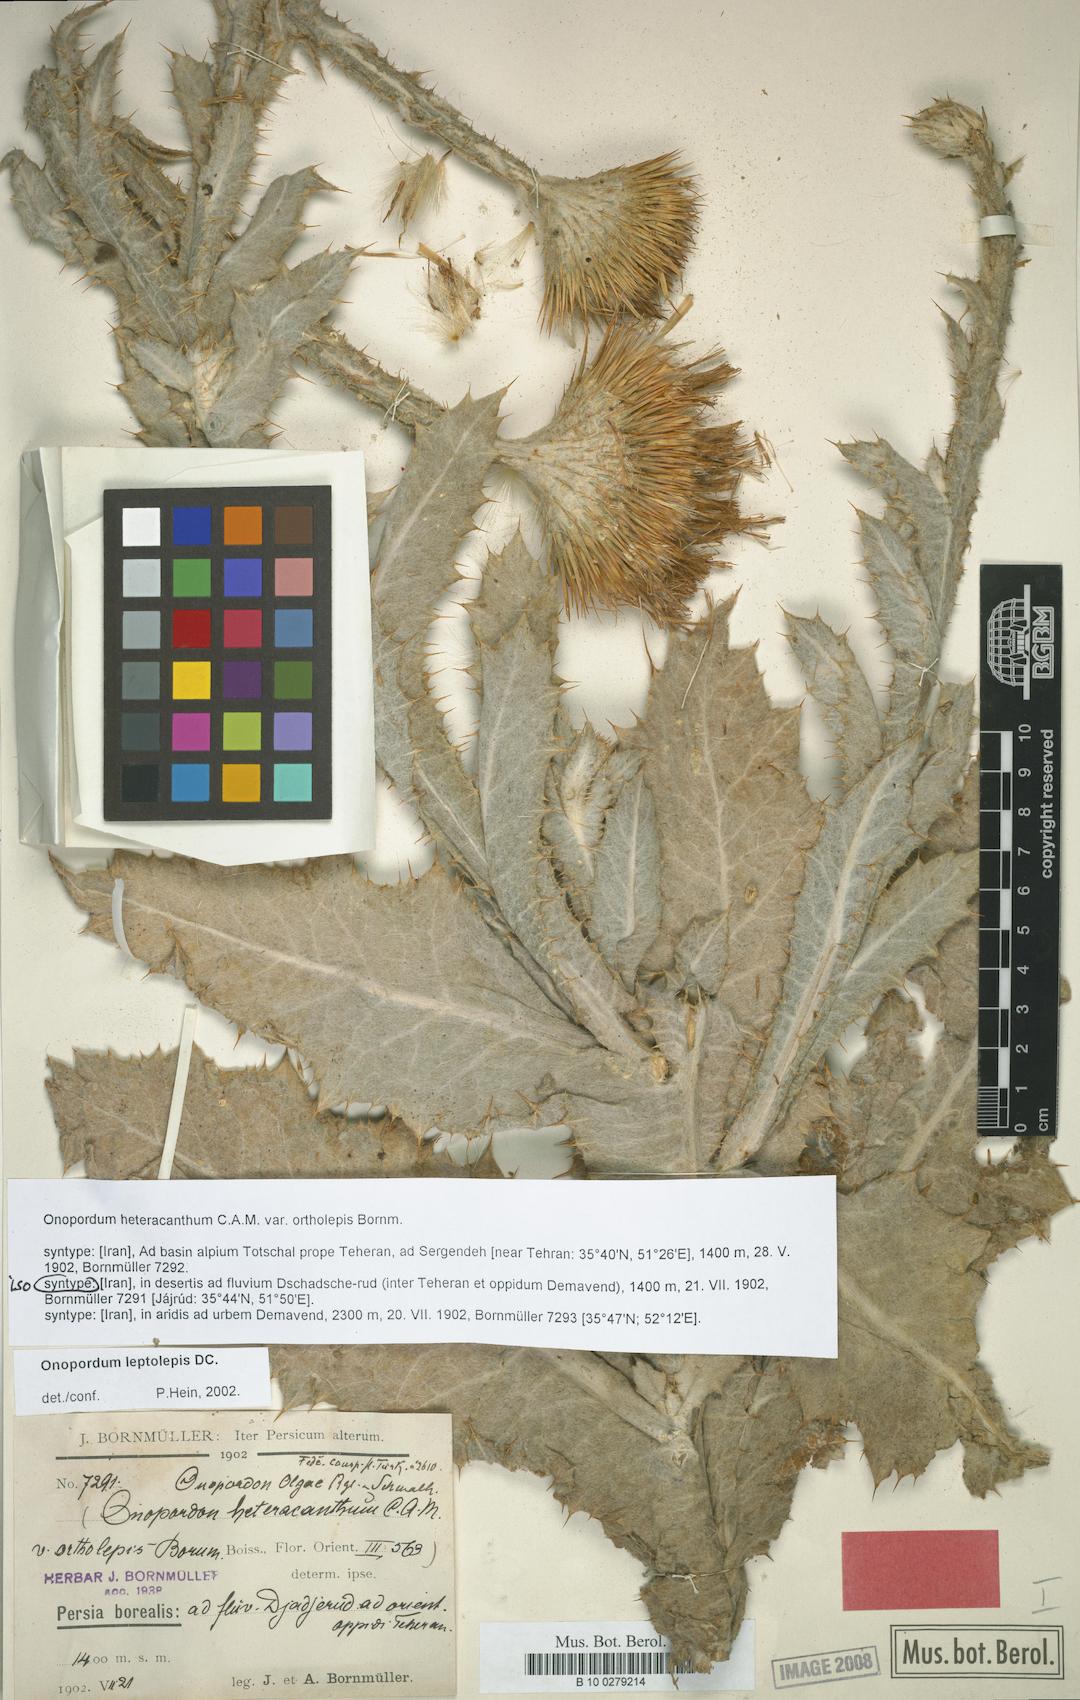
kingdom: Plantae
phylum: Tracheophyta
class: Magnoliopsida
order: Asterales
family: Asteraceae
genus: Onopordum
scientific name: Onopordum leptolepis
